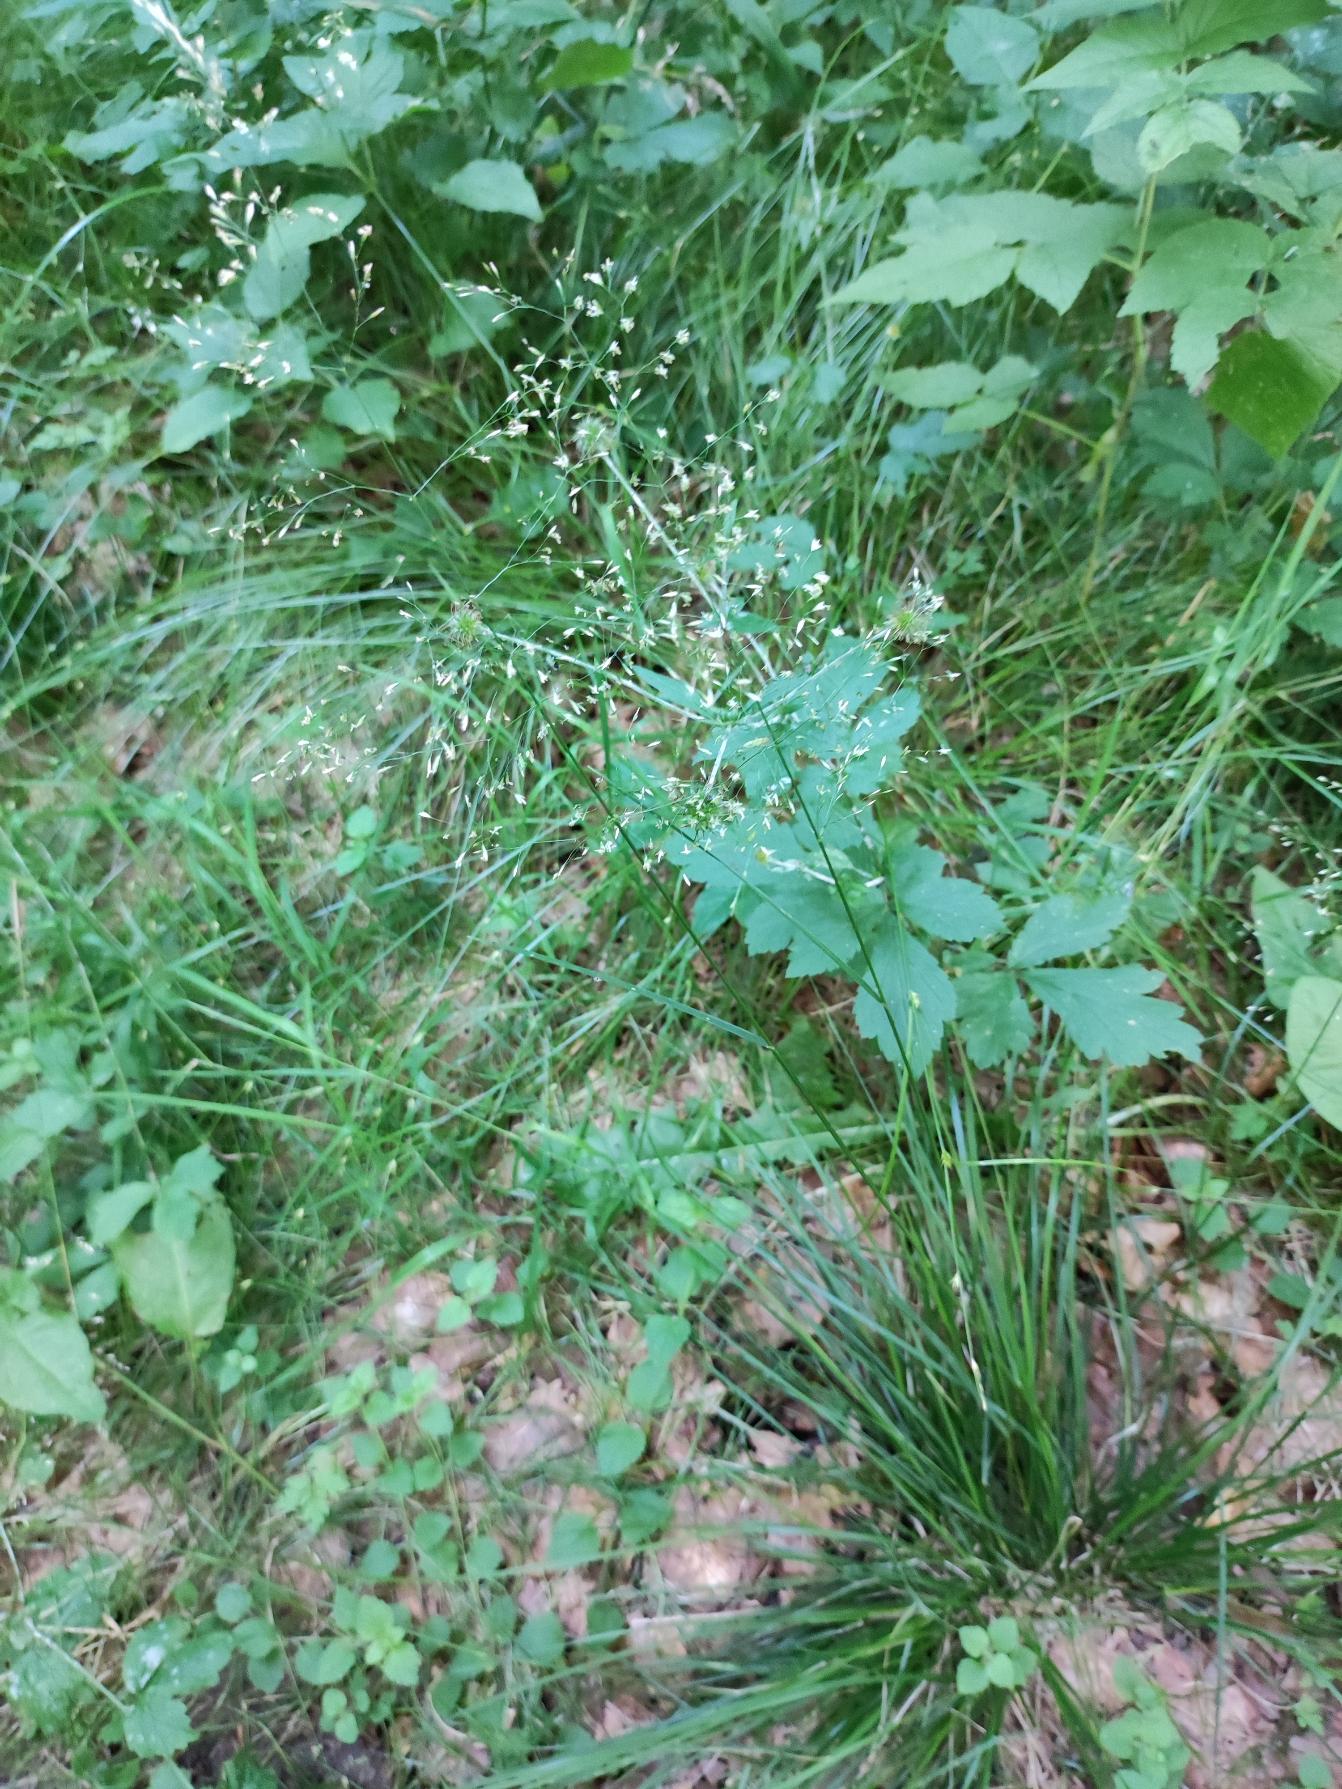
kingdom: Plantae
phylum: Tracheophyta
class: Liliopsida
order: Poales
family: Poaceae
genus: Deschampsia
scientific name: Deschampsia cespitosa
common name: Mose-bunke
